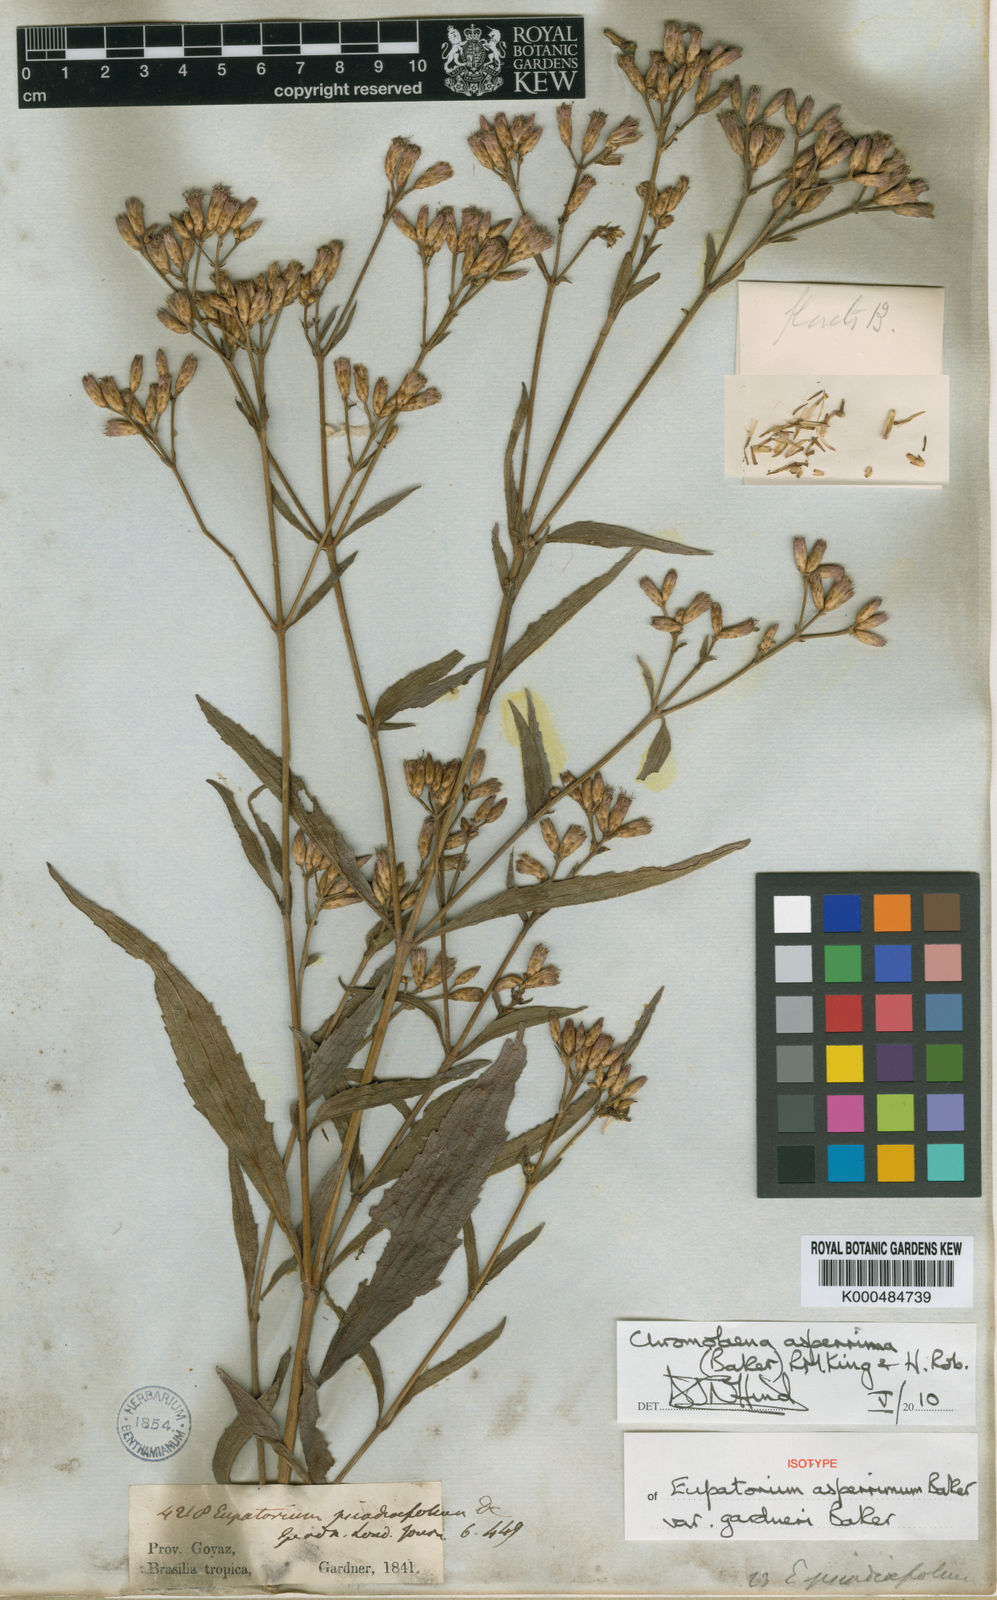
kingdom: Plantae
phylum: Tracheophyta
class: Magnoliopsida
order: Asterales
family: Asteraceae
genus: Chromolaena
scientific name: Chromolaena asperrima
